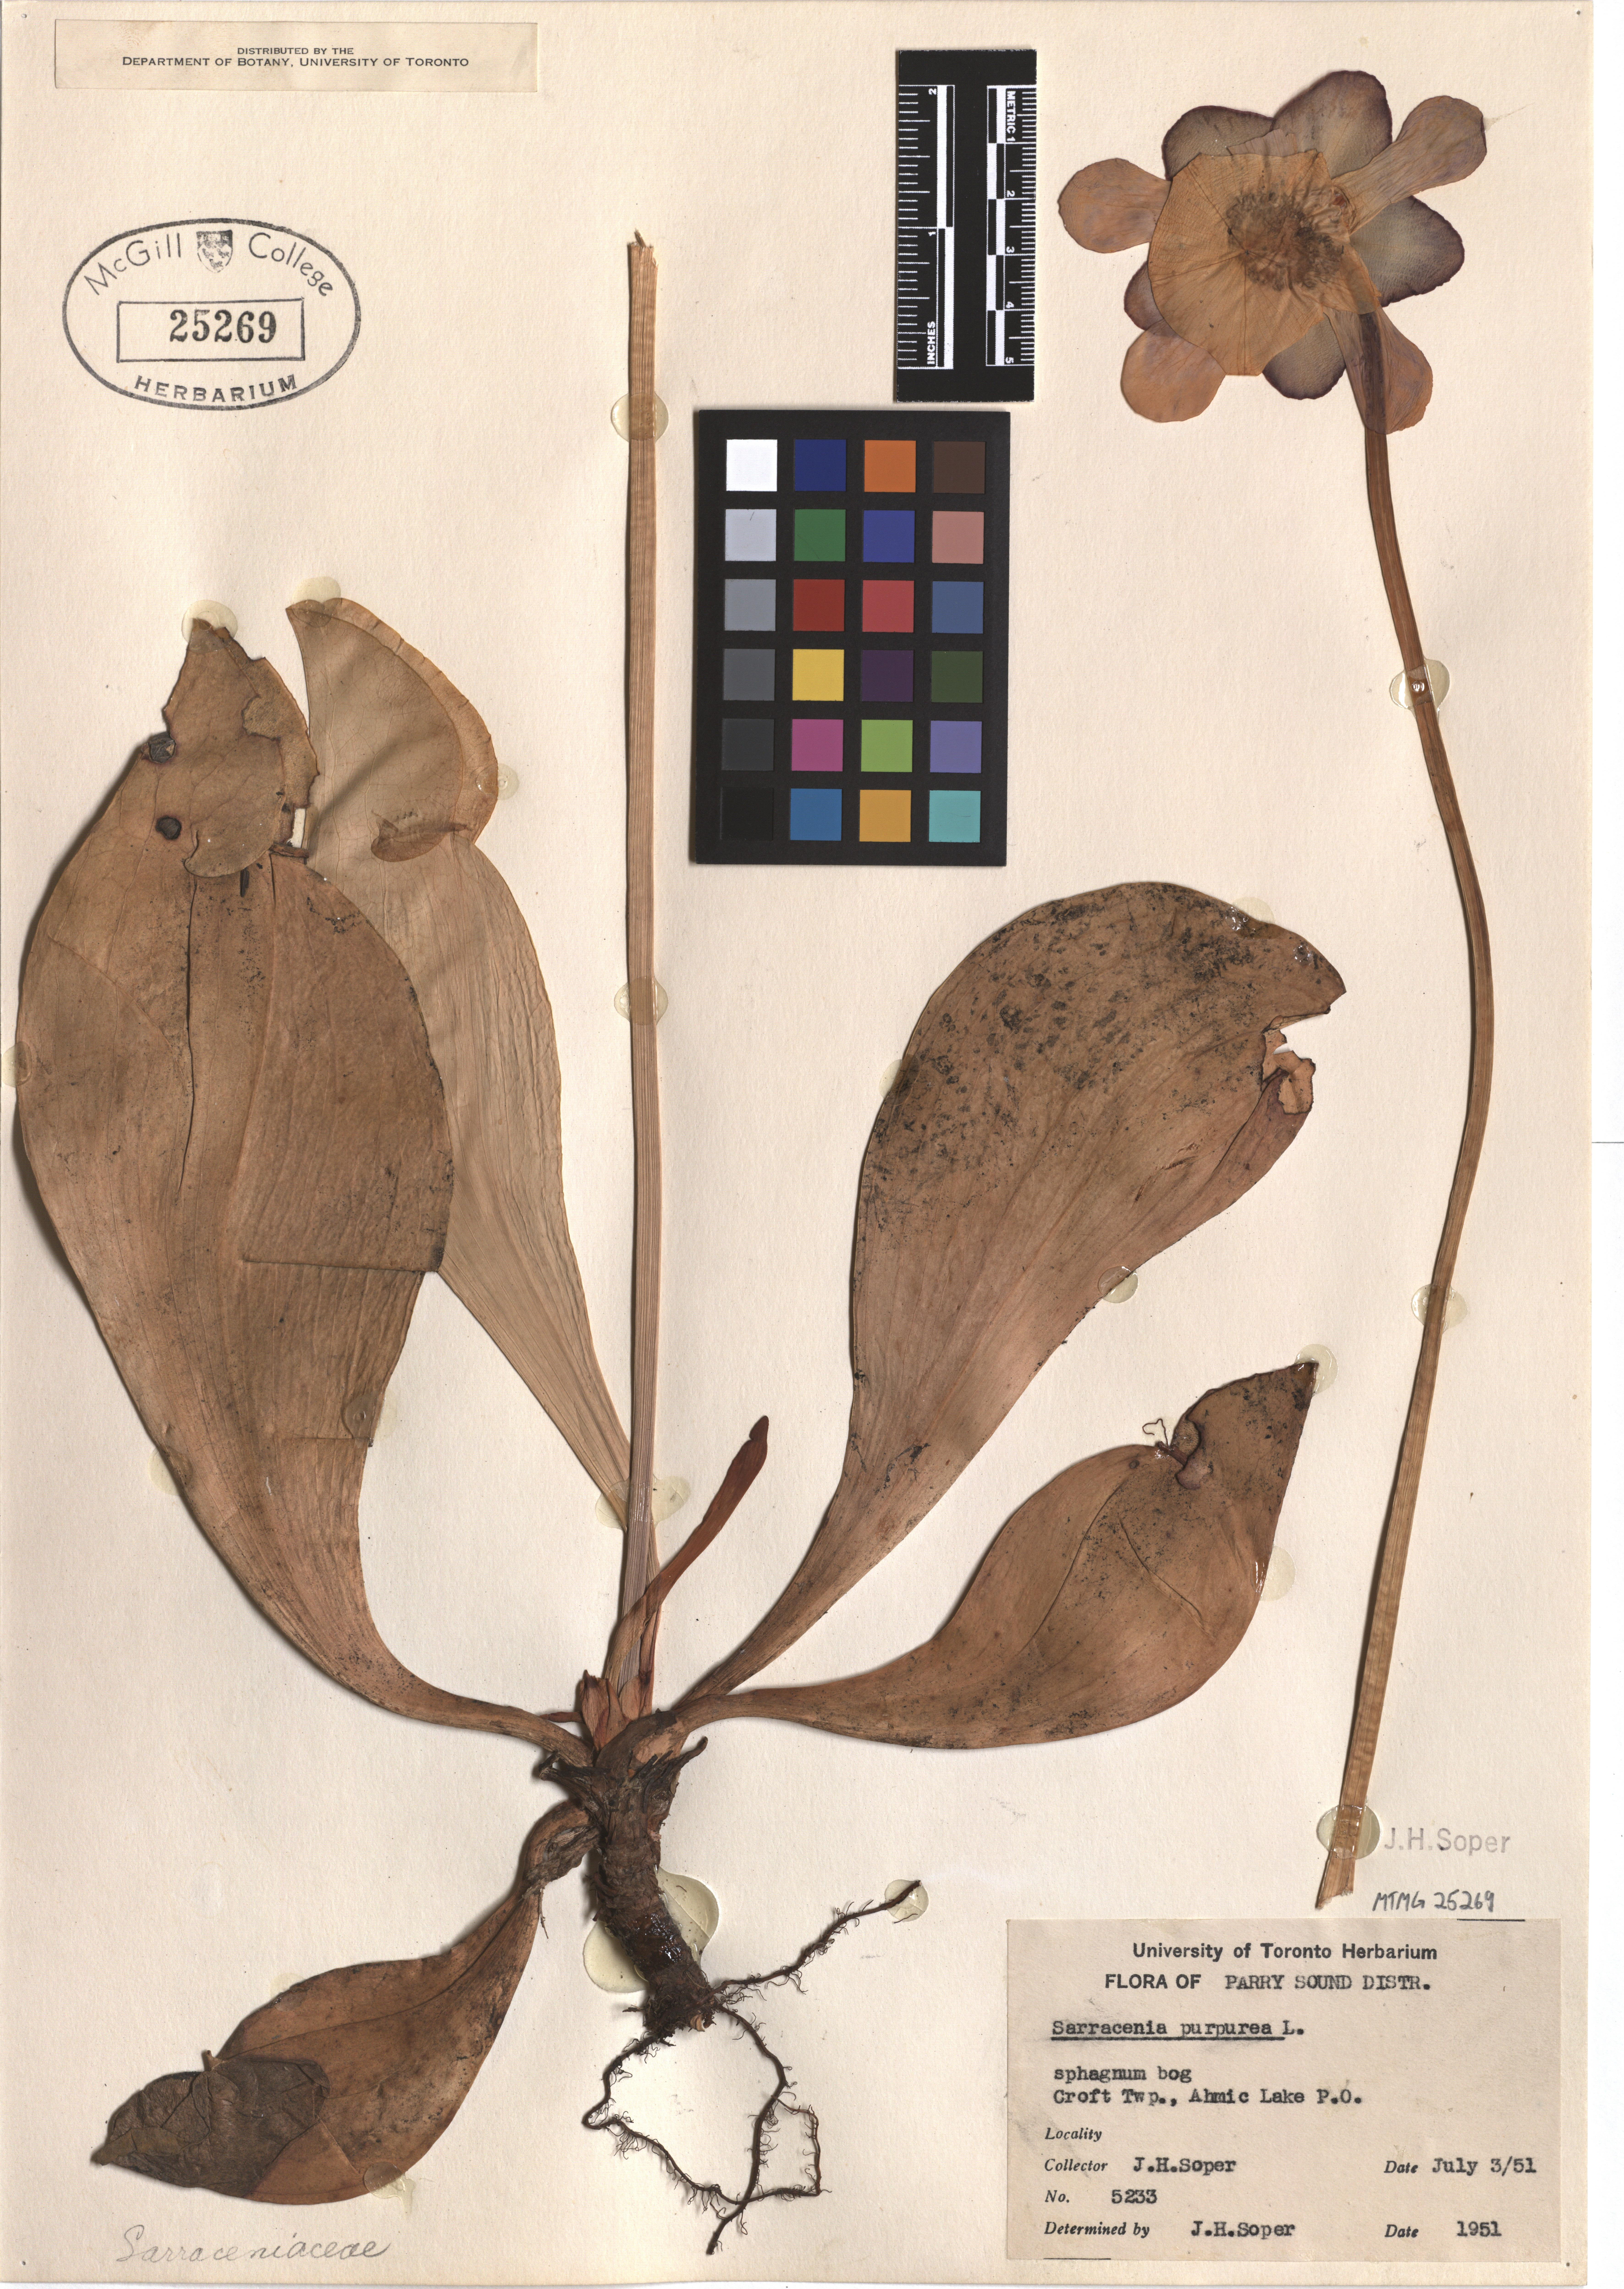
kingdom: Plantae
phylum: Tracheophyta
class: Magnoliopsida
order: Ericales
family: Sarraceniaceae
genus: Sarracenia
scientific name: Sarracenia purpurea
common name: Pitcherplant
